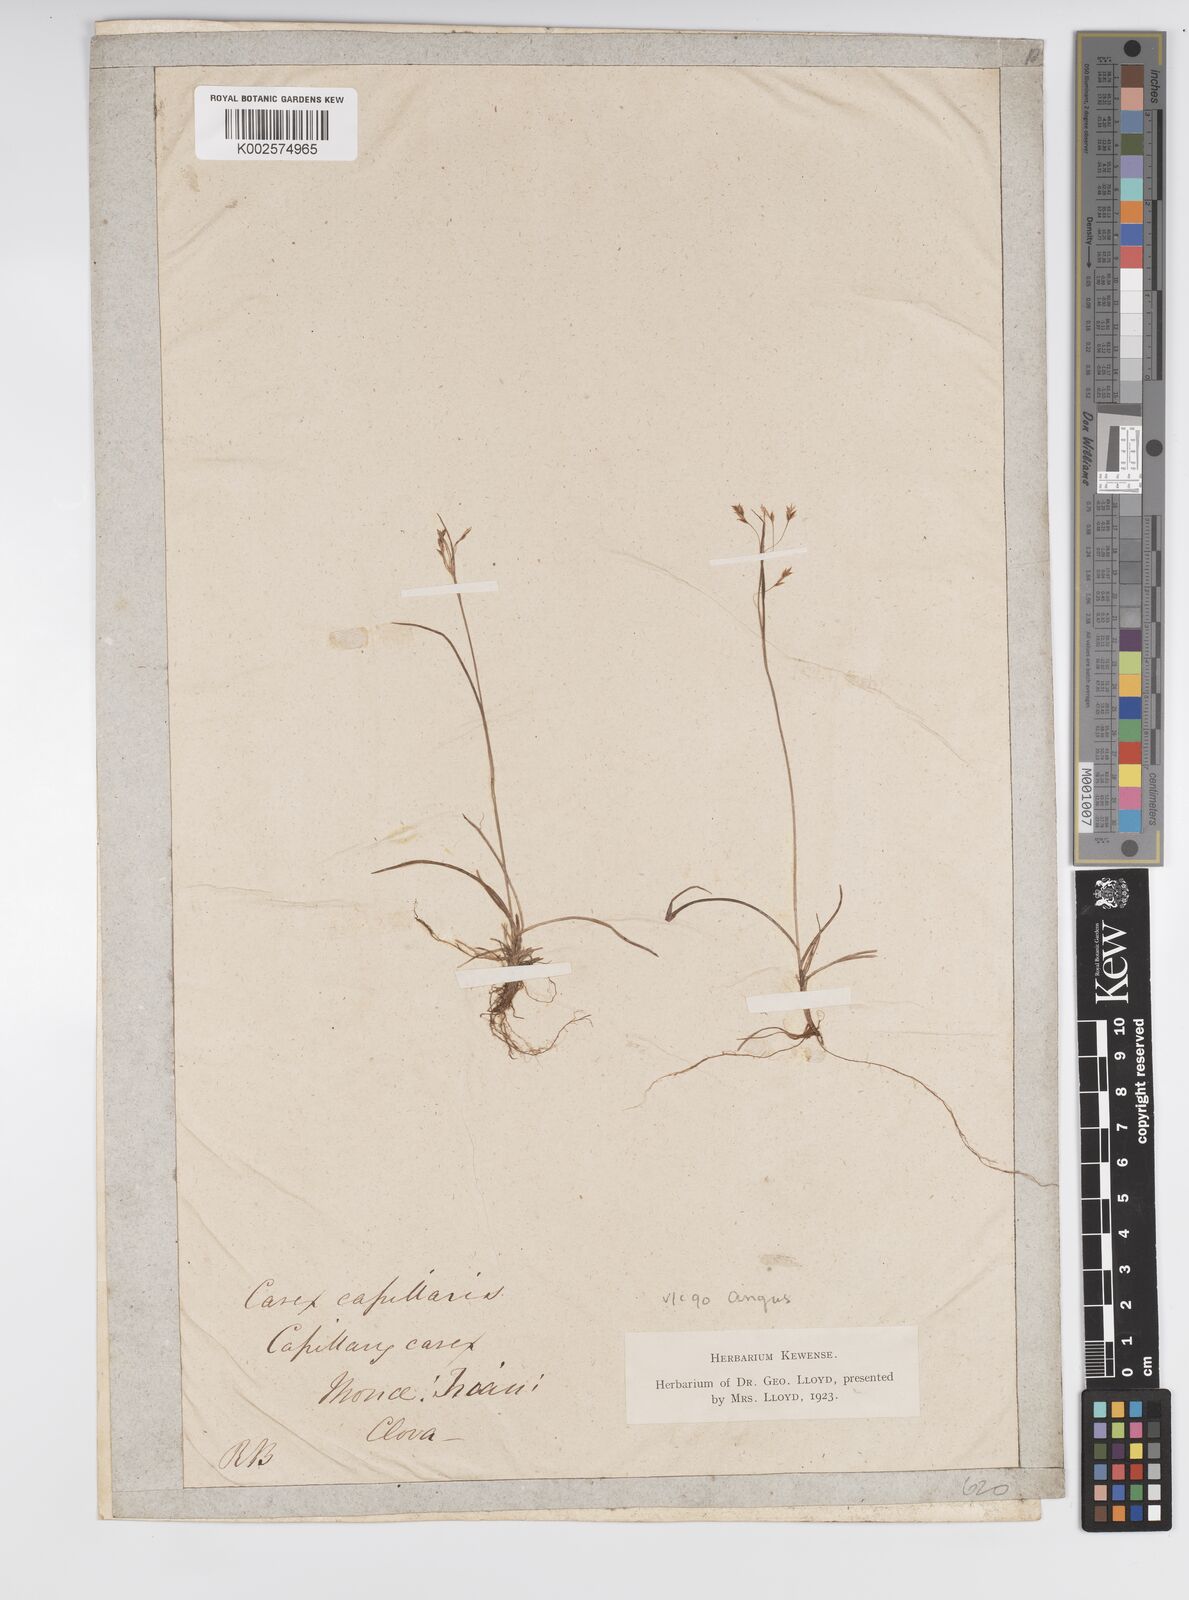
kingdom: Plantae
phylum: Tracheophyta
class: Liliopsida
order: Poales
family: Cyperaceae
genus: Carex
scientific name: Carex capillaris
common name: Hair sedge
